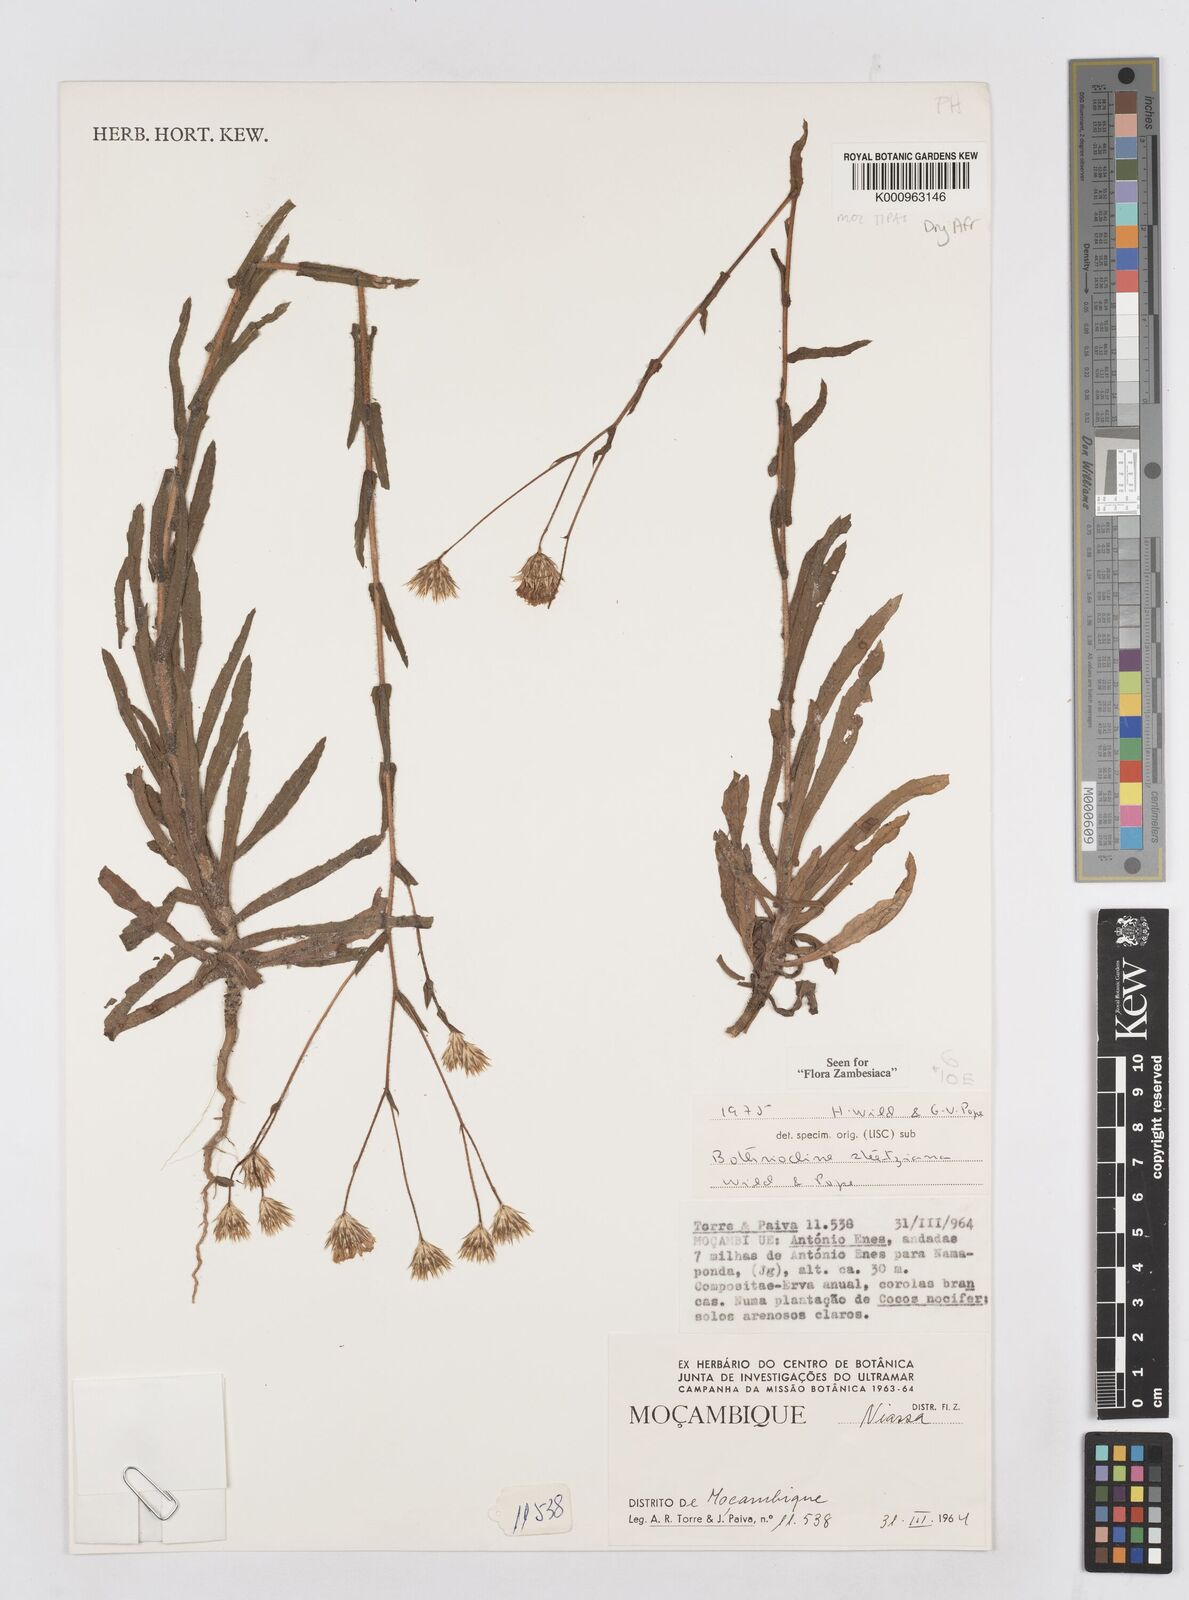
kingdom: Plantae
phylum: Tracheophyta
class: Magnoliopsida
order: Asterales
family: Asteraceae
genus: Bothriocline
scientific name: Bothriocline steetziana
